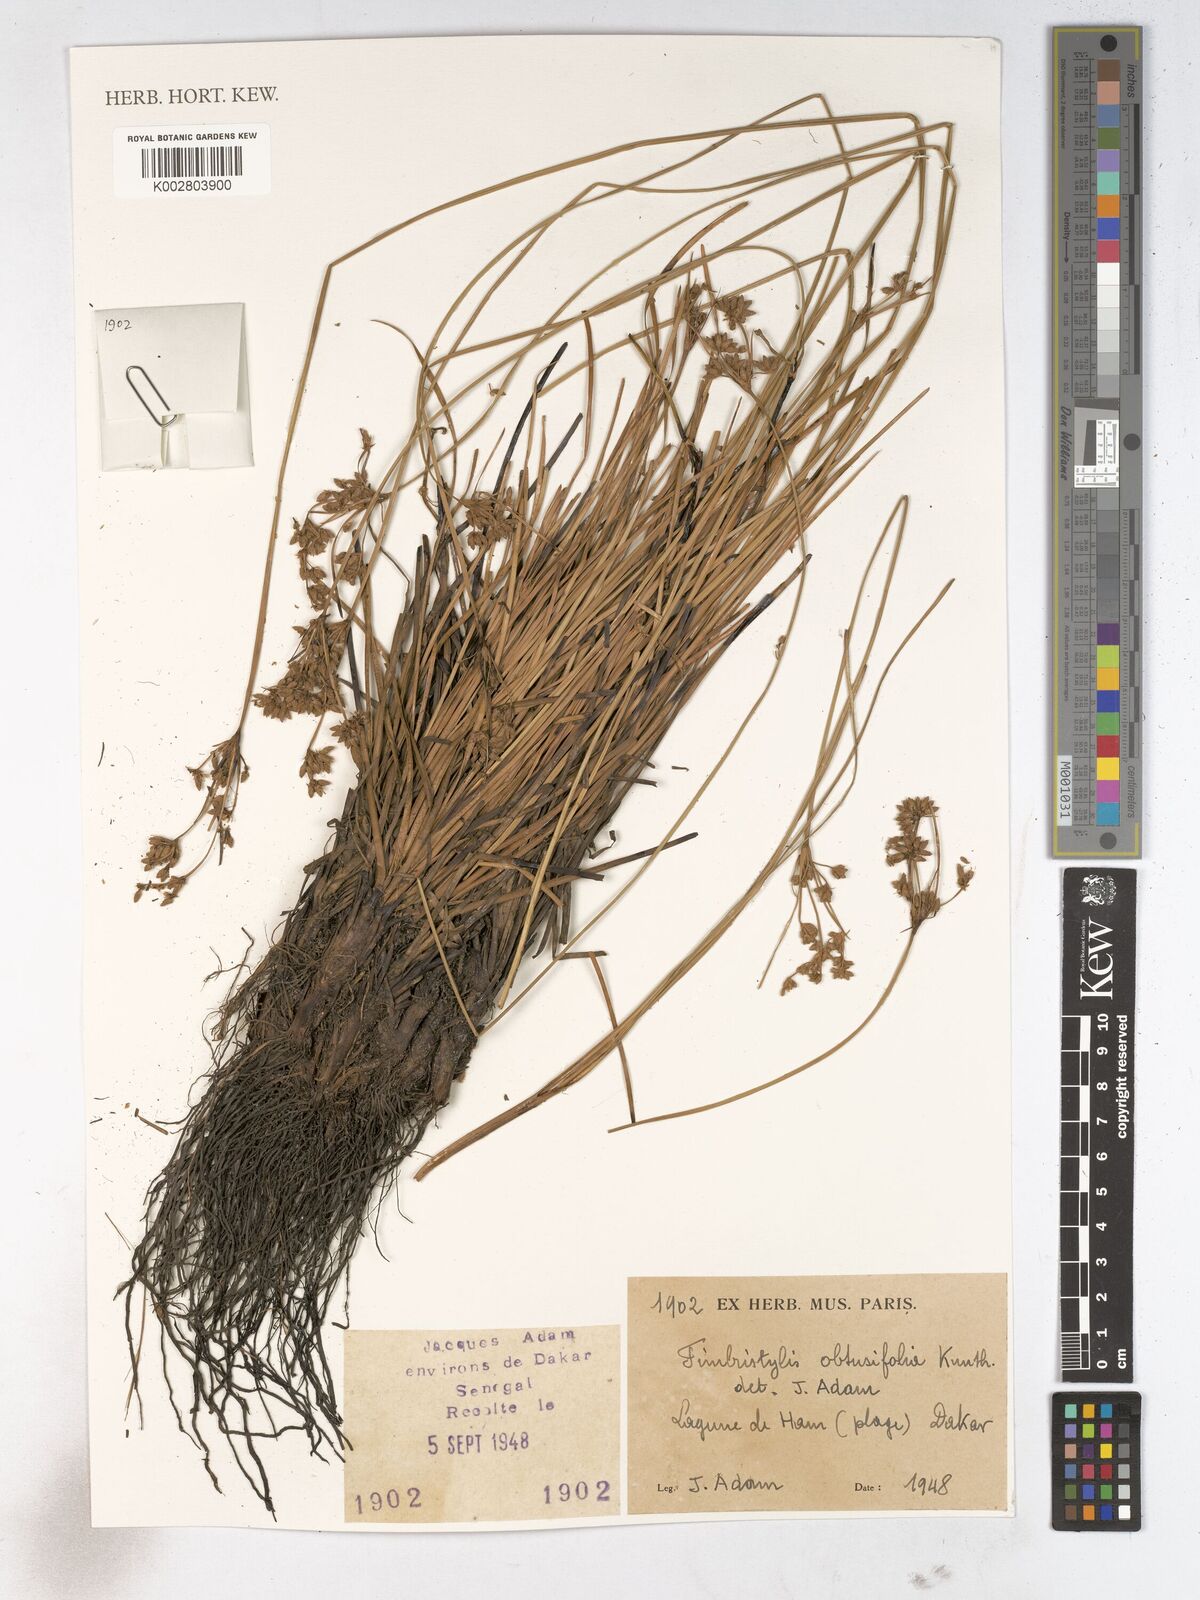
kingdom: Plantae
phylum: Tracheophyta
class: Liliopsida
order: Poales
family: Cyperaceae
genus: Fimbristylis
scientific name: Fimbristylis cymosa
